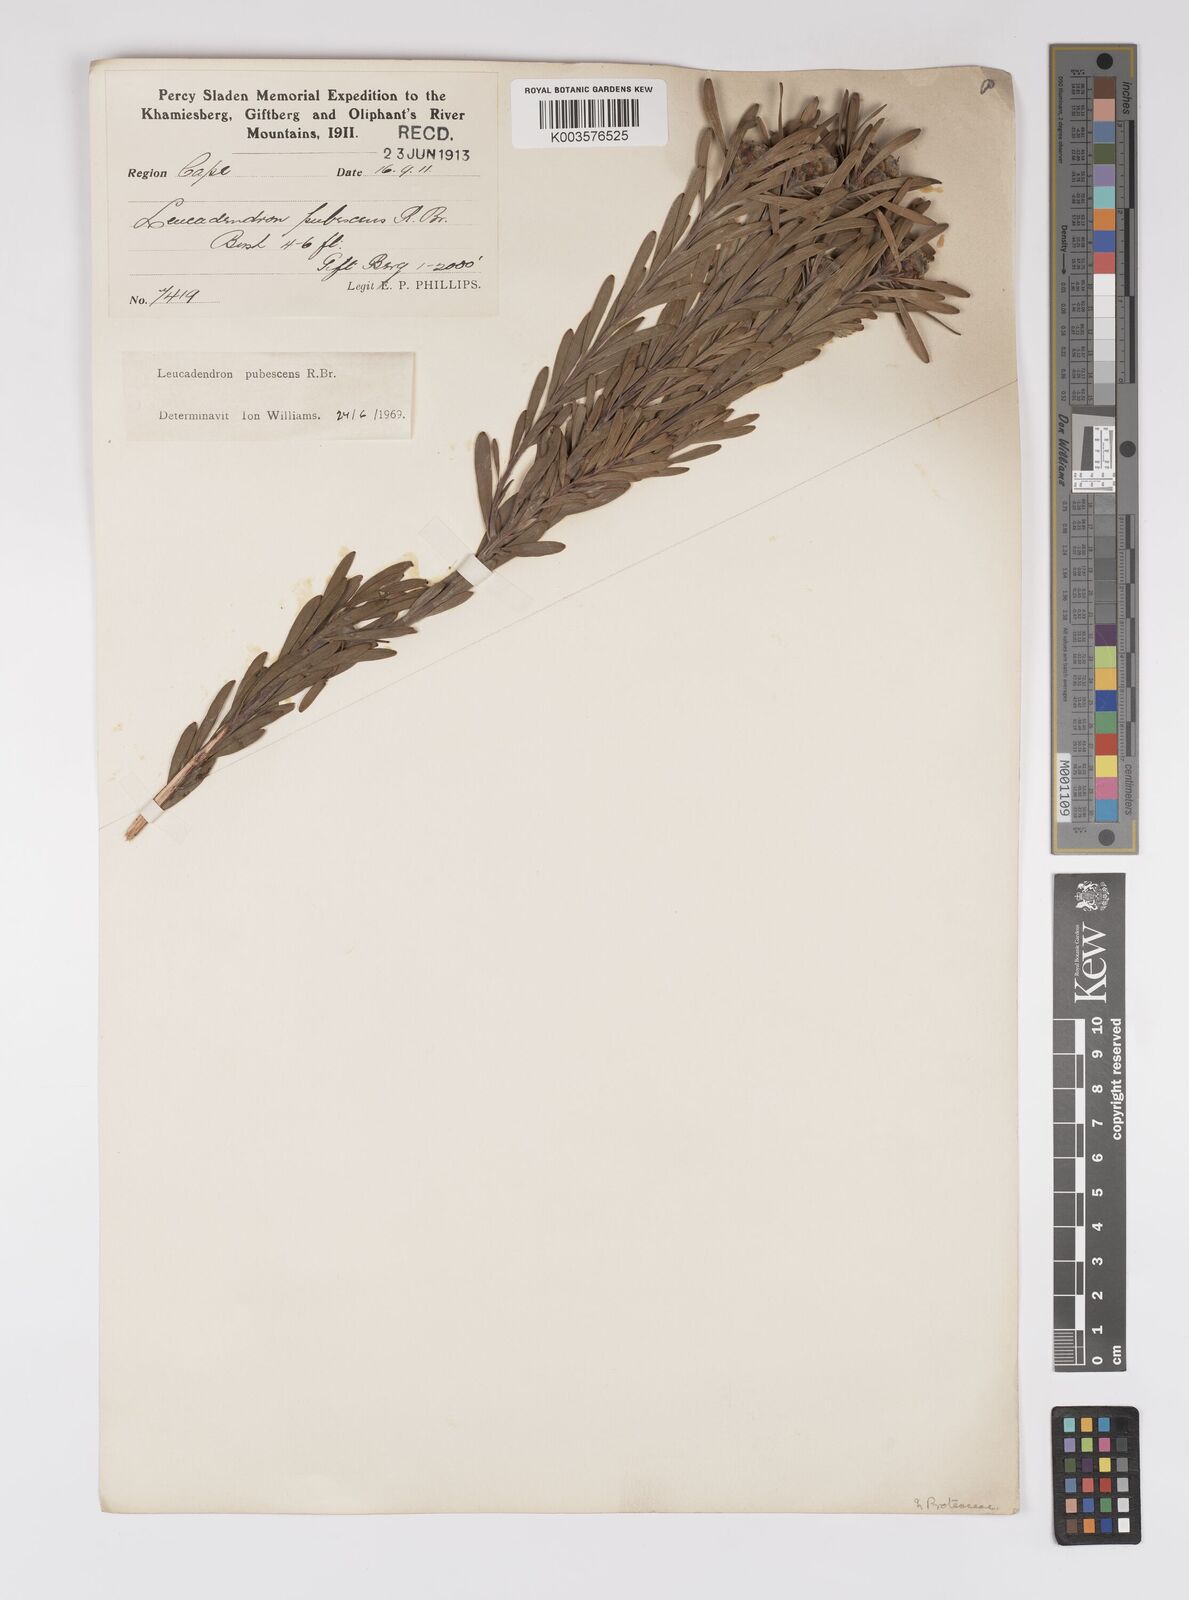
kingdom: Plantae
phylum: Tracheophyta
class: Magnoliopsida
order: Proteales
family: Proteaceae
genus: Leucadendron
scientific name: Leucadendron pubescens
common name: Grey conebush
